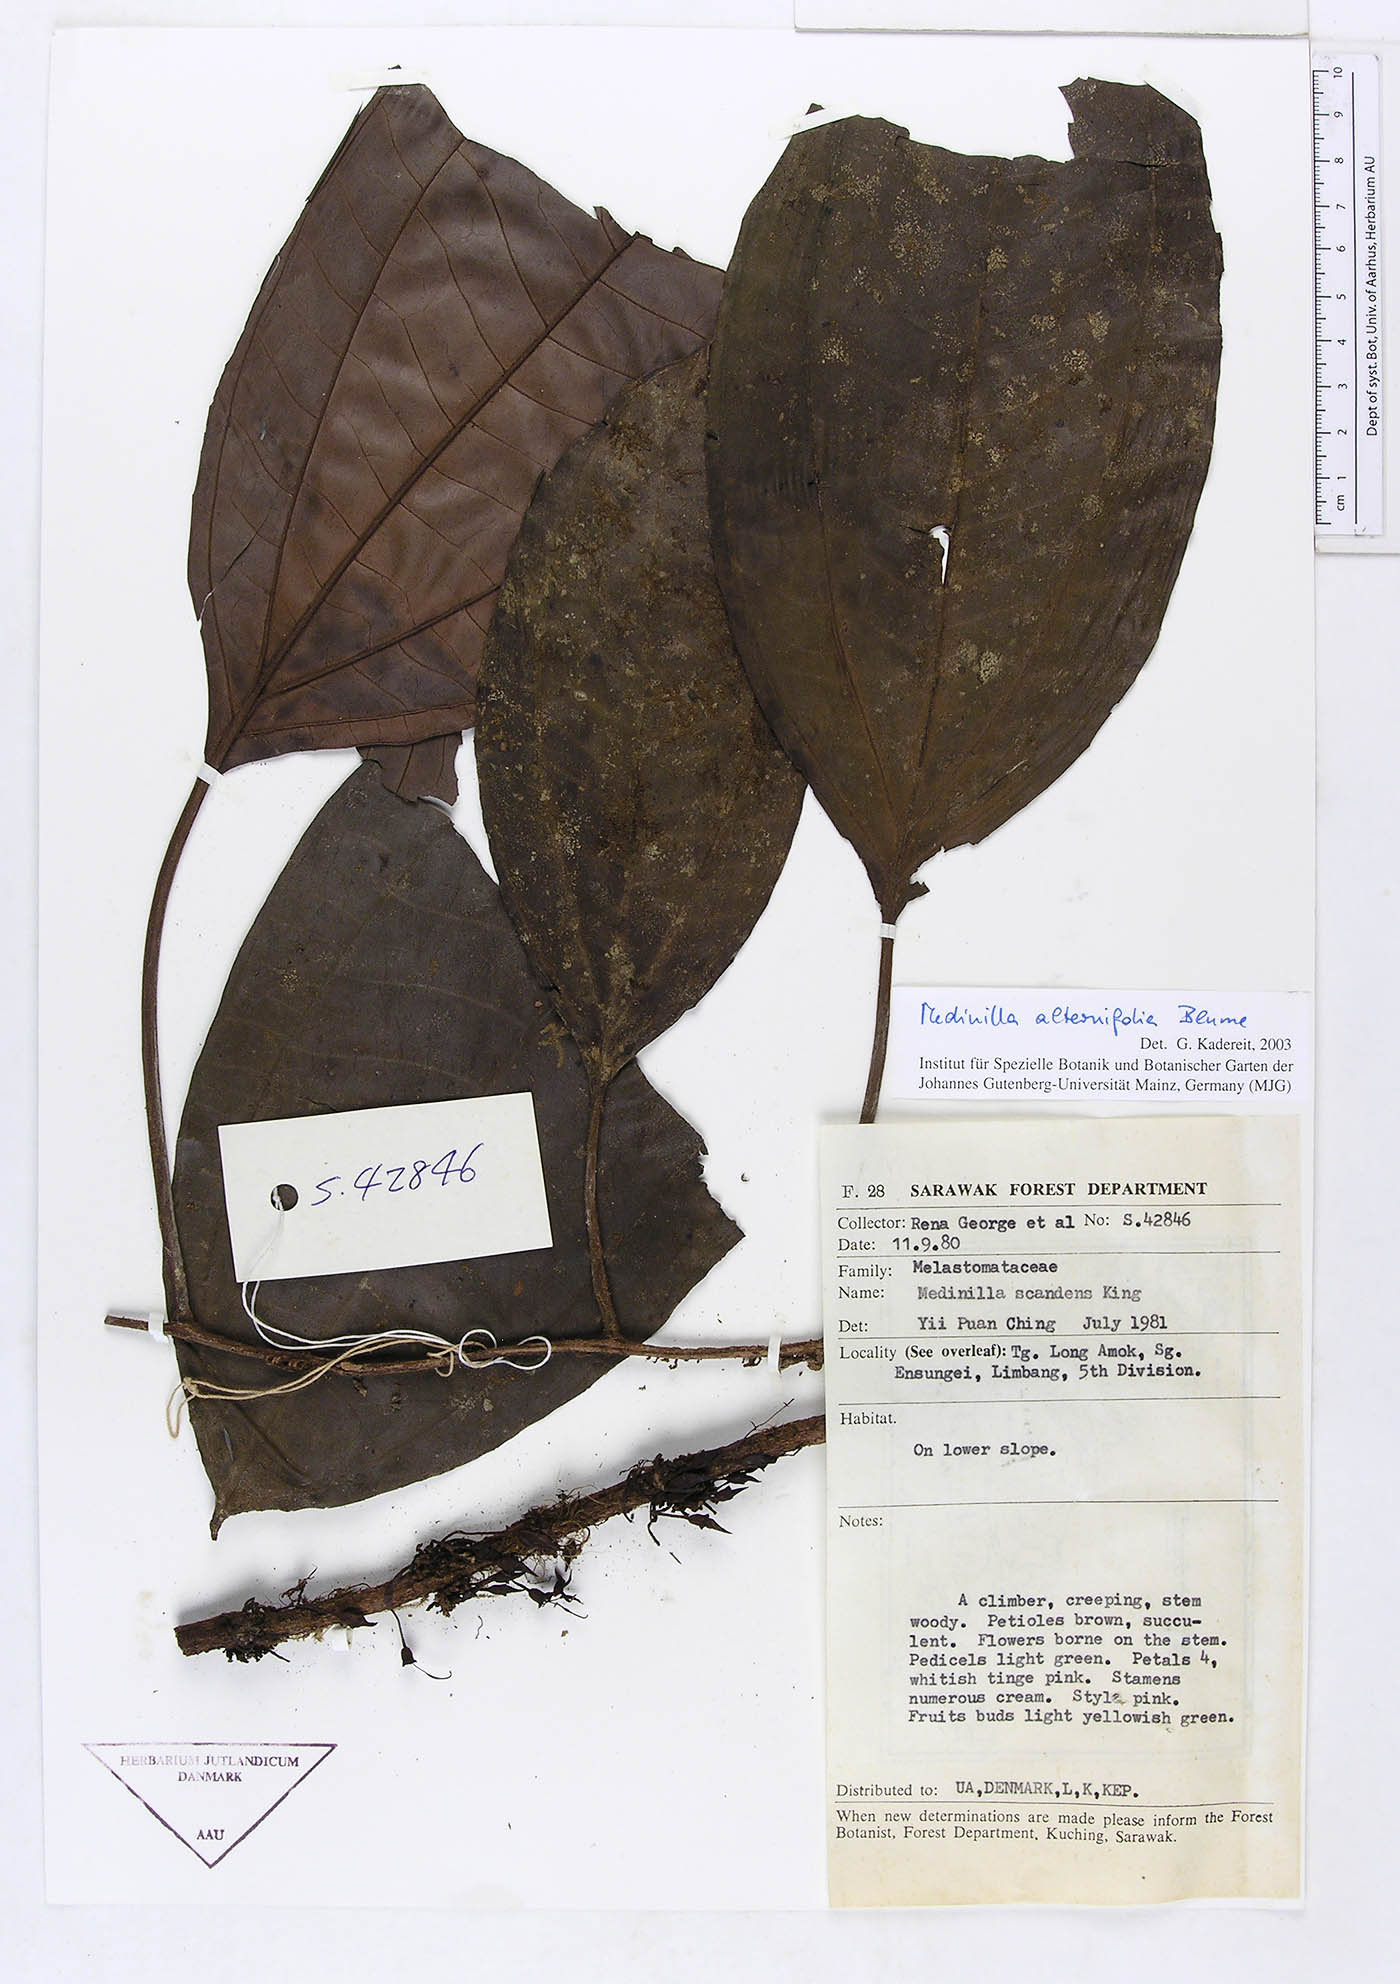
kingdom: Plantae
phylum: Tracheophyta
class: Magnoliopsida
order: Myrtales
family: Melastomataceae
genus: Heteroblemma
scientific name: Heteroblemma alternifolium
